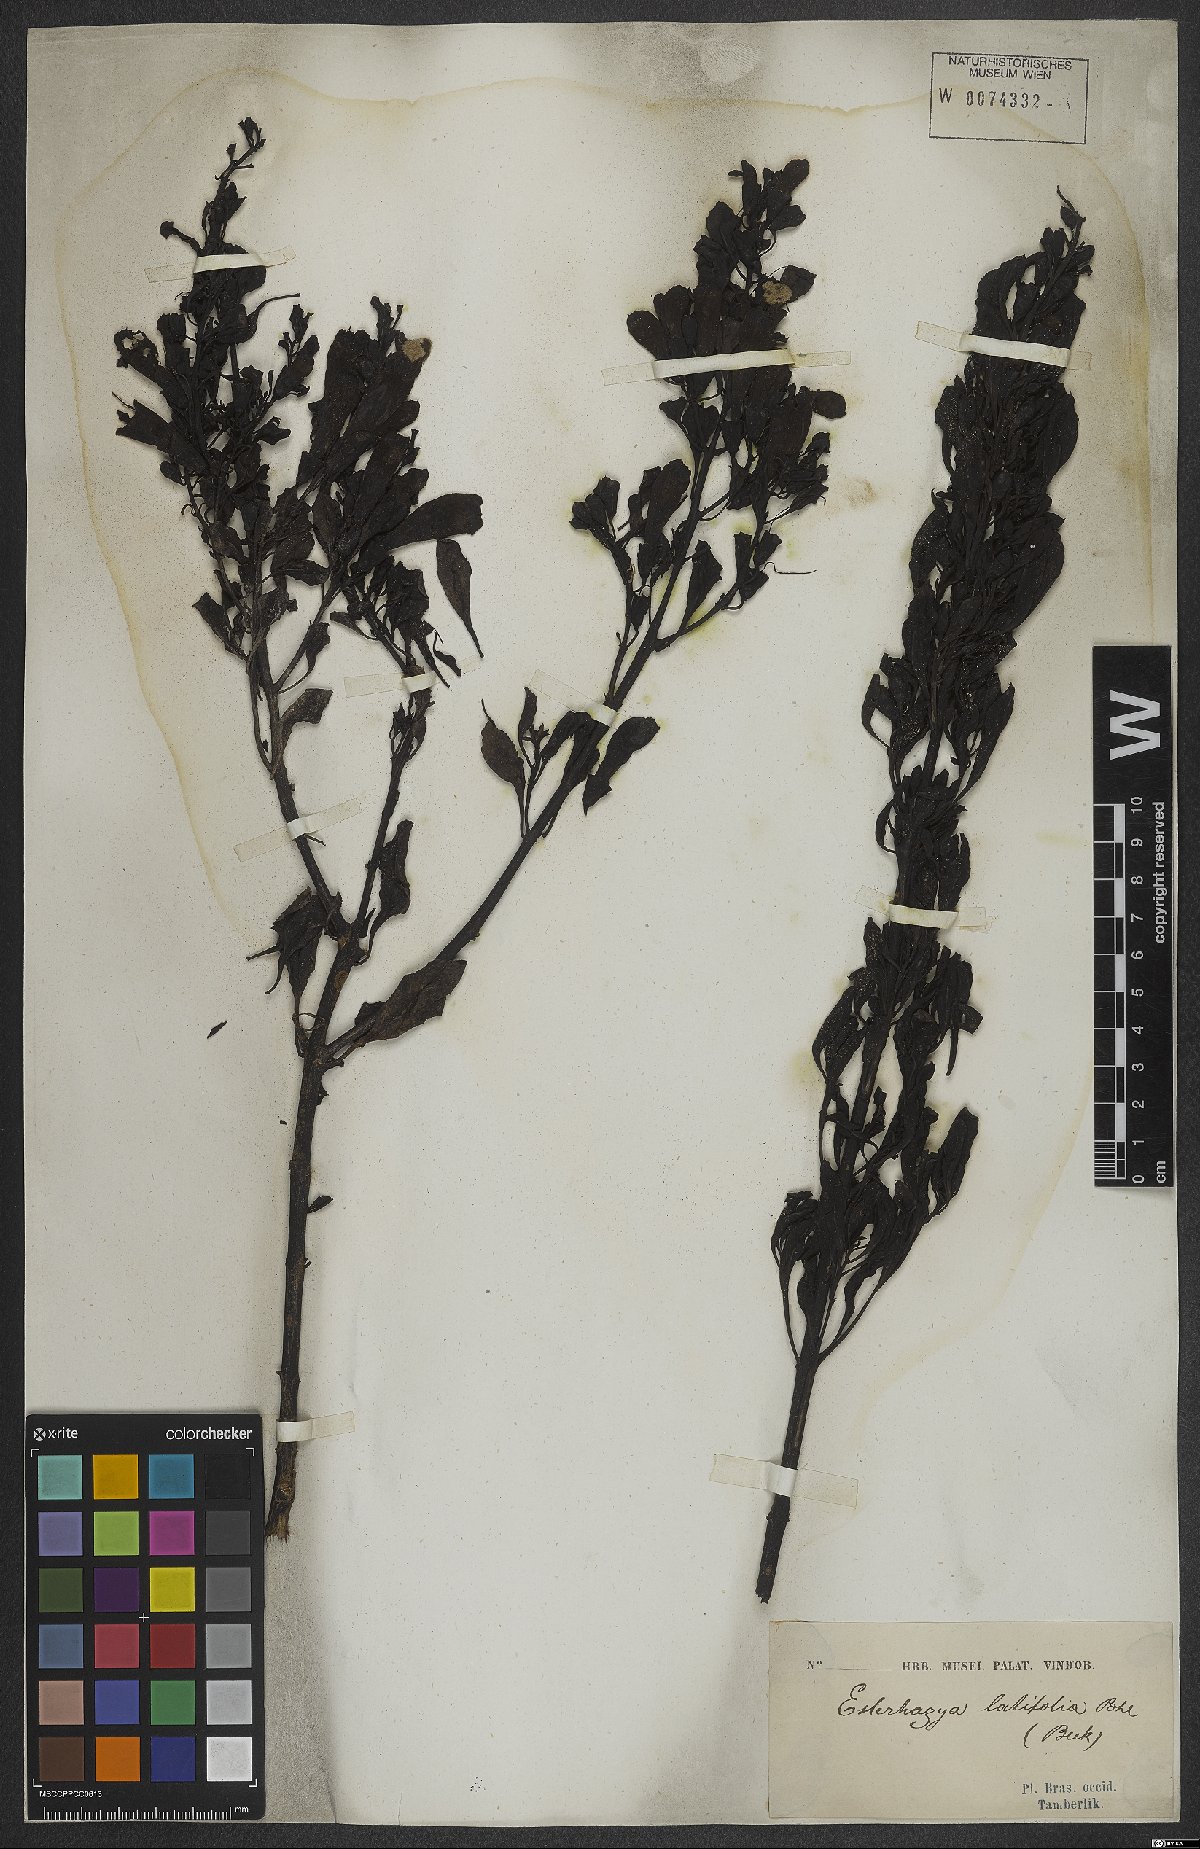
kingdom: Plantae
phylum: Tracheophyta
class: Magnoliopsida
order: Lamiales
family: Scrophulariaceae
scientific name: Scrophulariaceae
